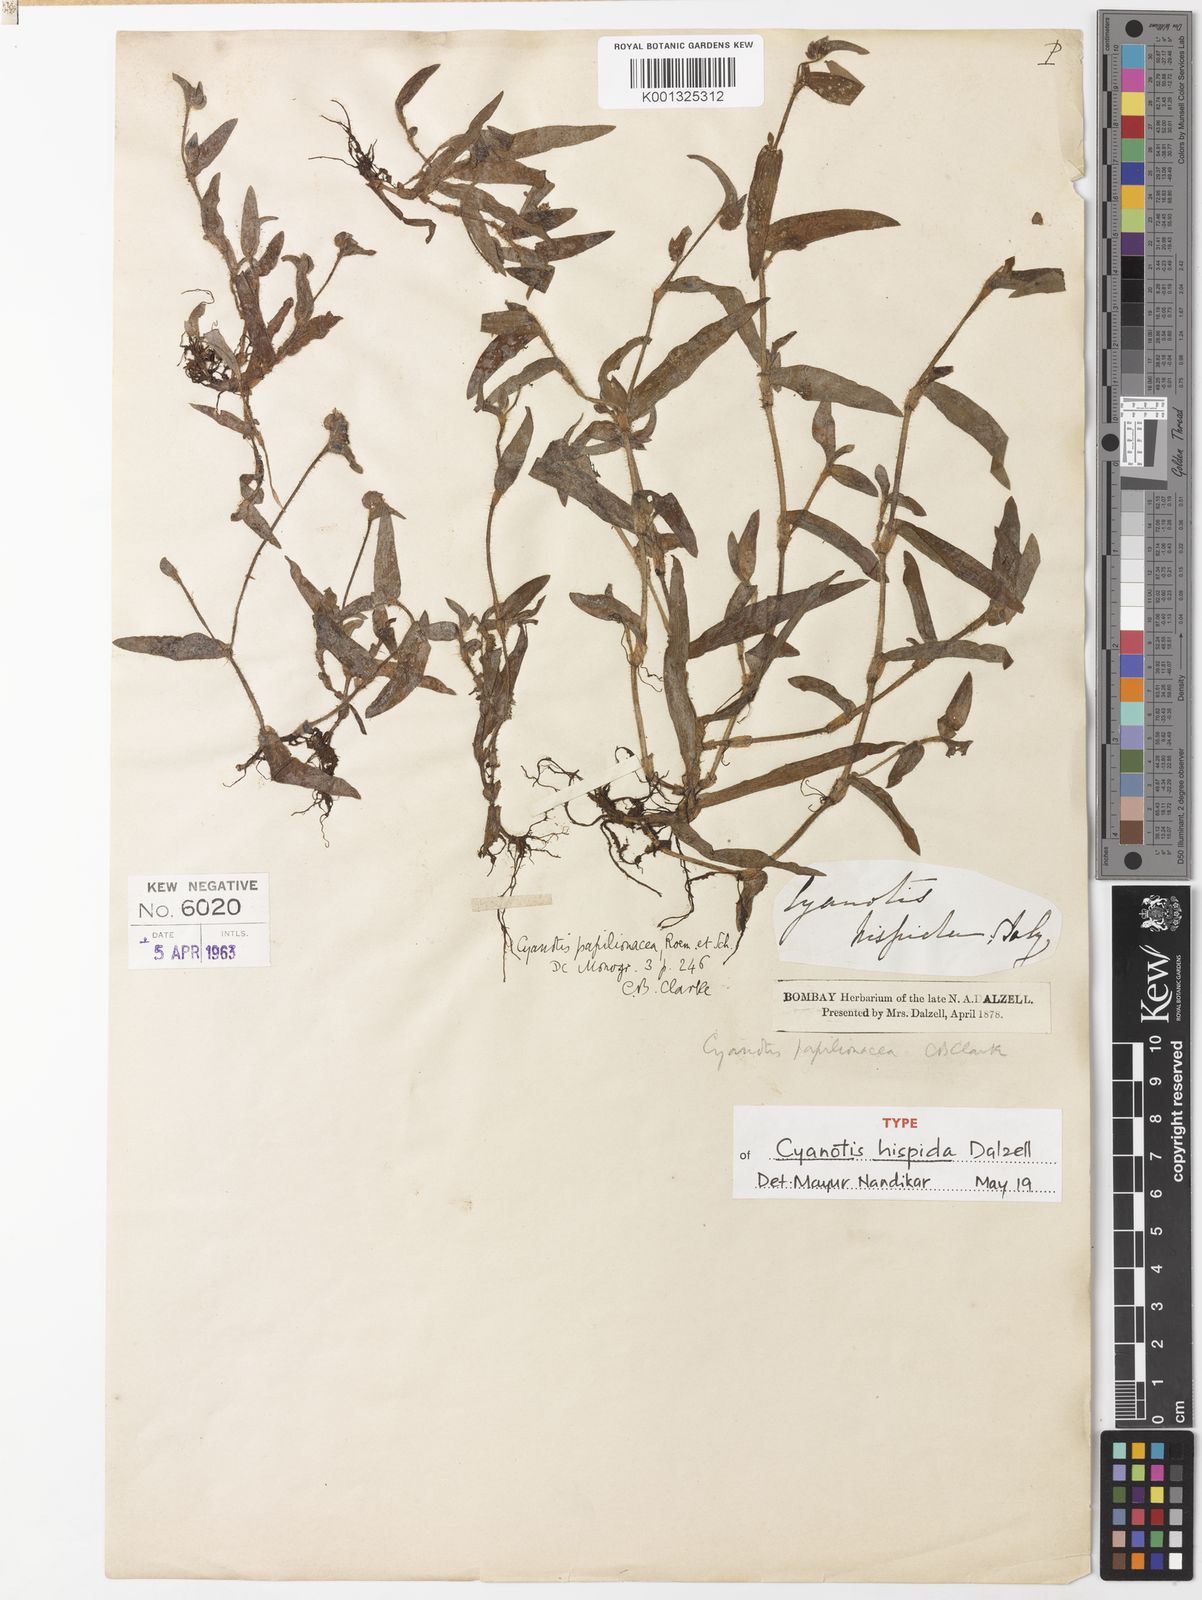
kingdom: Plantae
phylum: Tracheophyta
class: Liliopsida
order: Commelinales
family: Commelinaceae
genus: Cyanotis
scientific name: Cyanotis burmanniana
